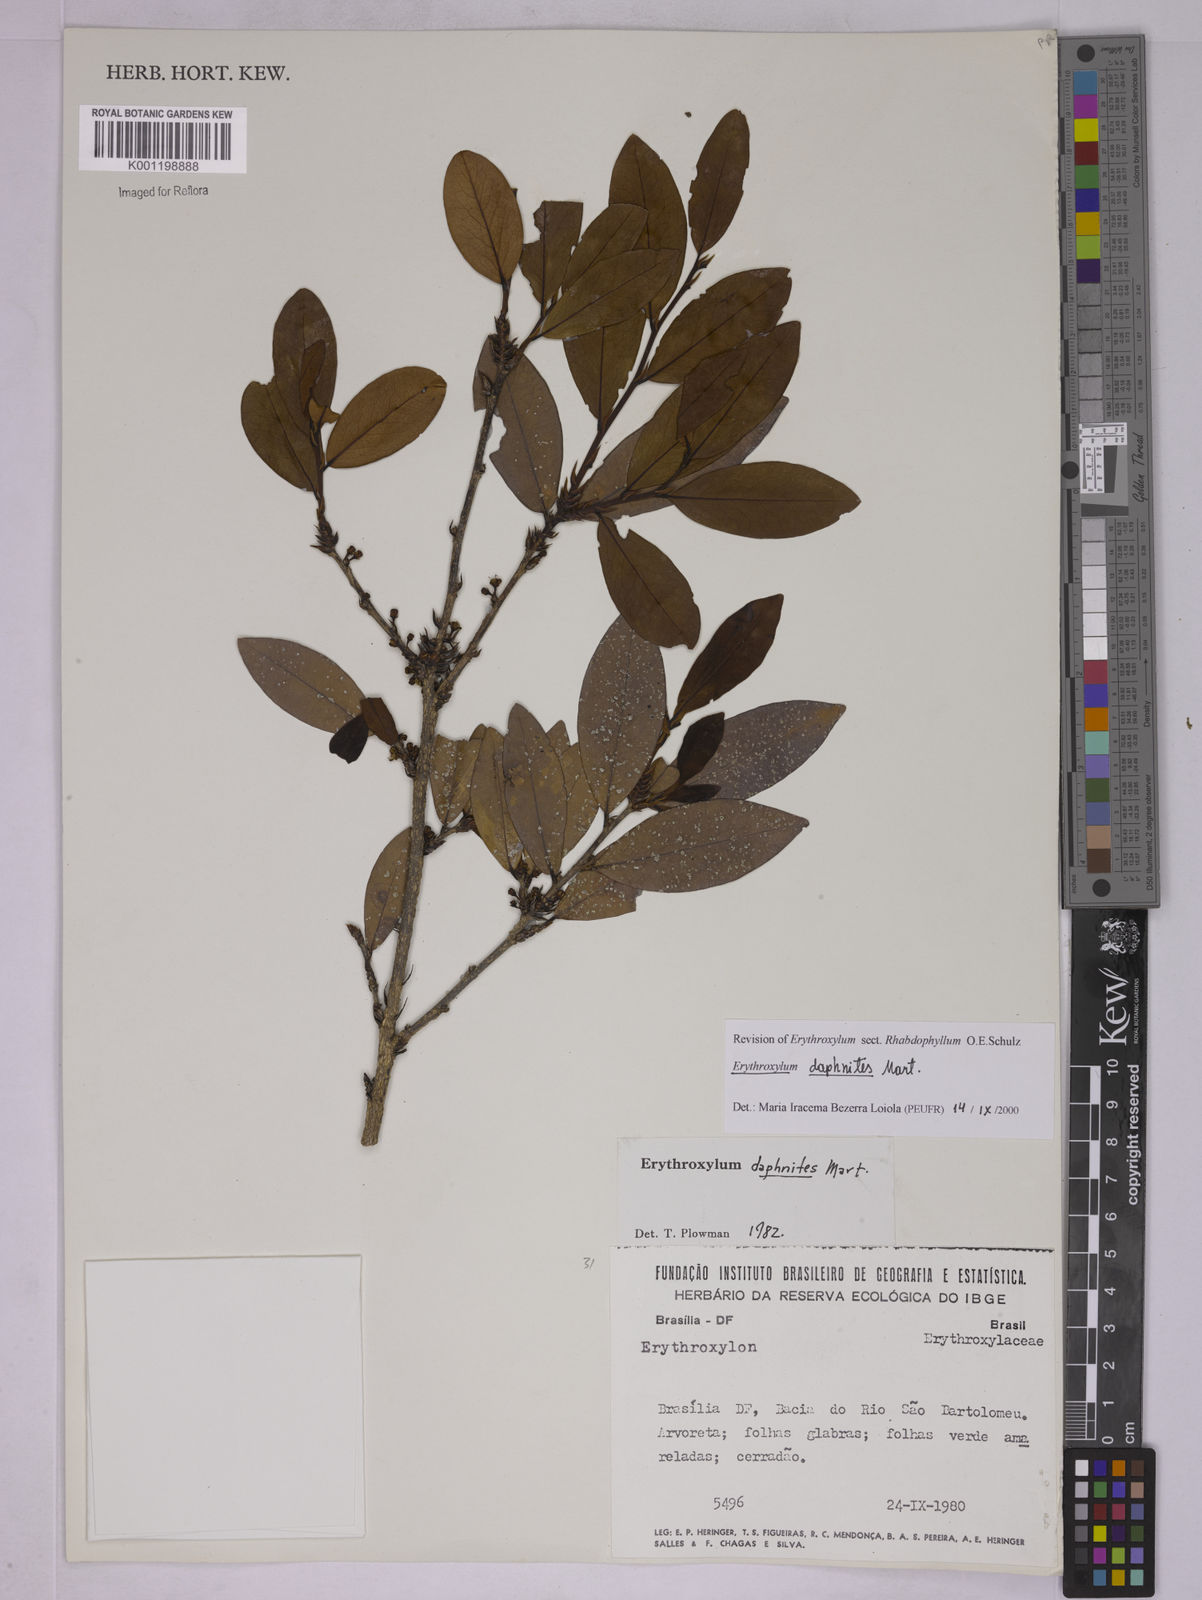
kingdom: Plantae
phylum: Tracheophyta
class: Magnoliopsida
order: Malpighiales
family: Erythroxylaceae
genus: Erythroxylum
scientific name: Erythroxylum daphnites
